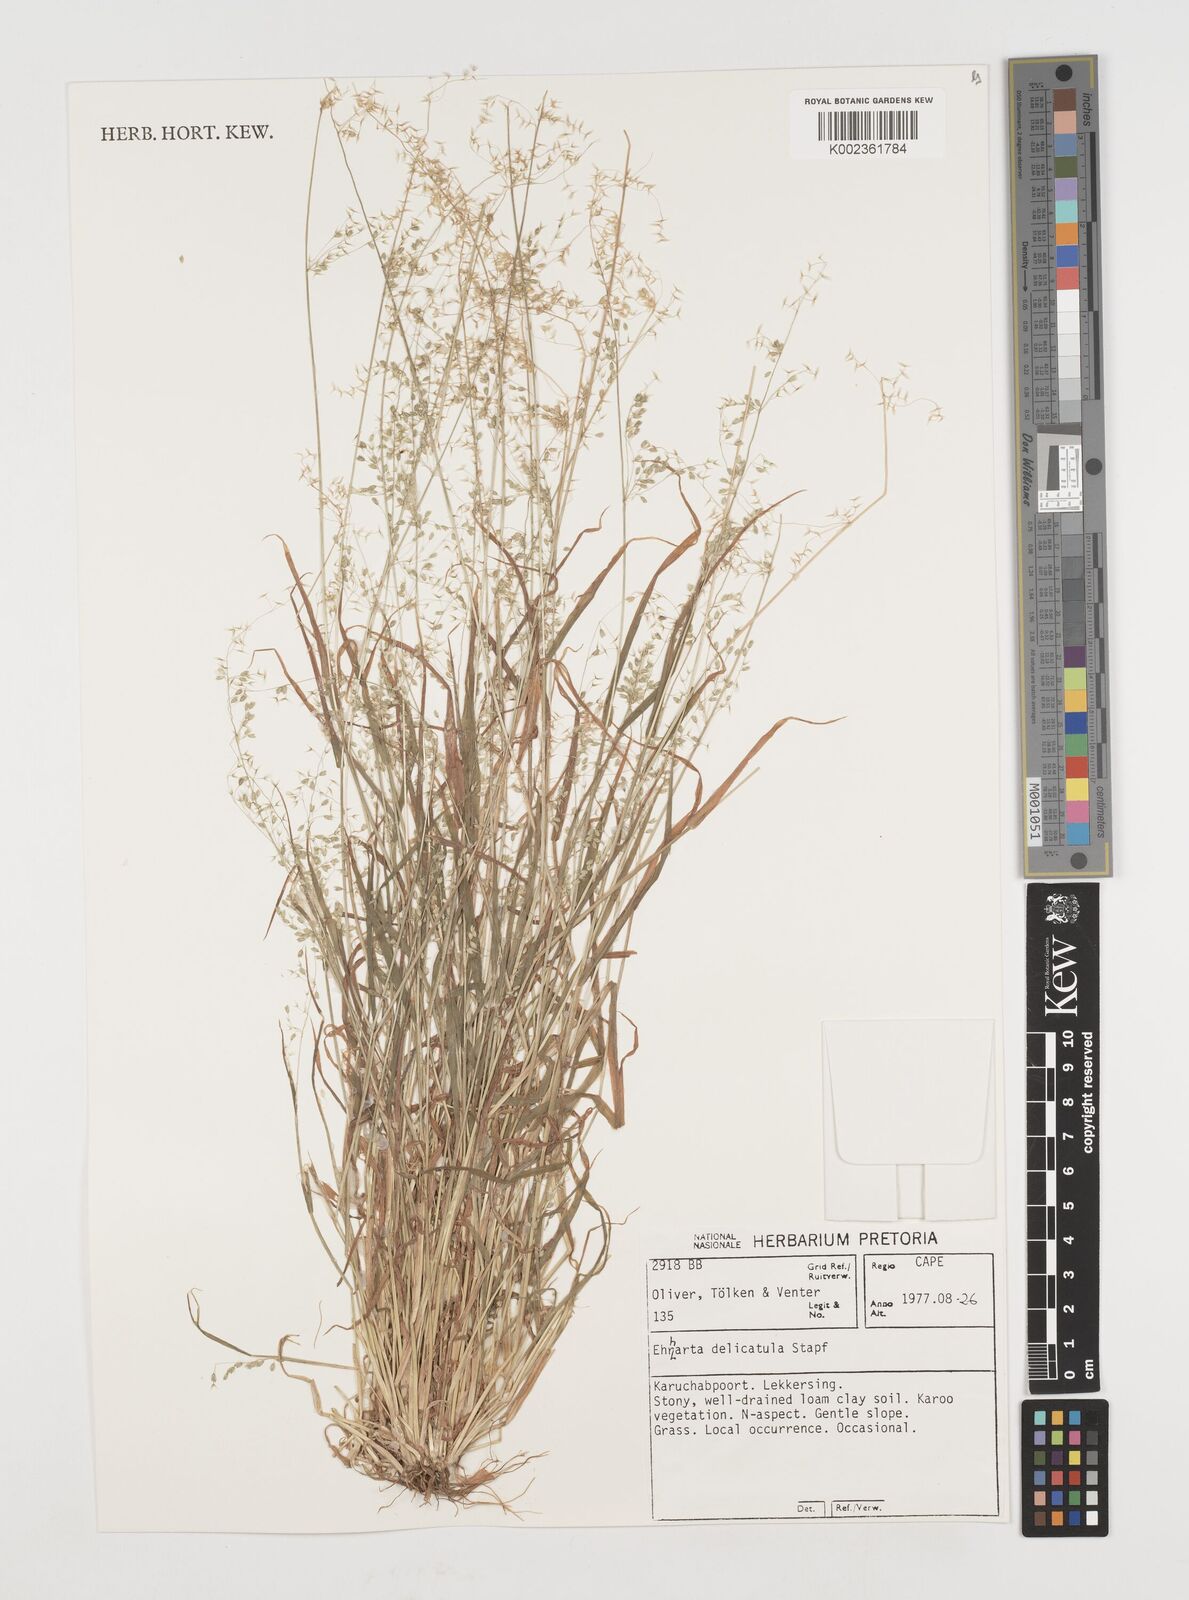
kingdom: Plantae
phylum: Tracheophyta
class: Liliopsida
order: Poales
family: Poaceae
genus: Ehrharta
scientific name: Ehrharta delicatula
